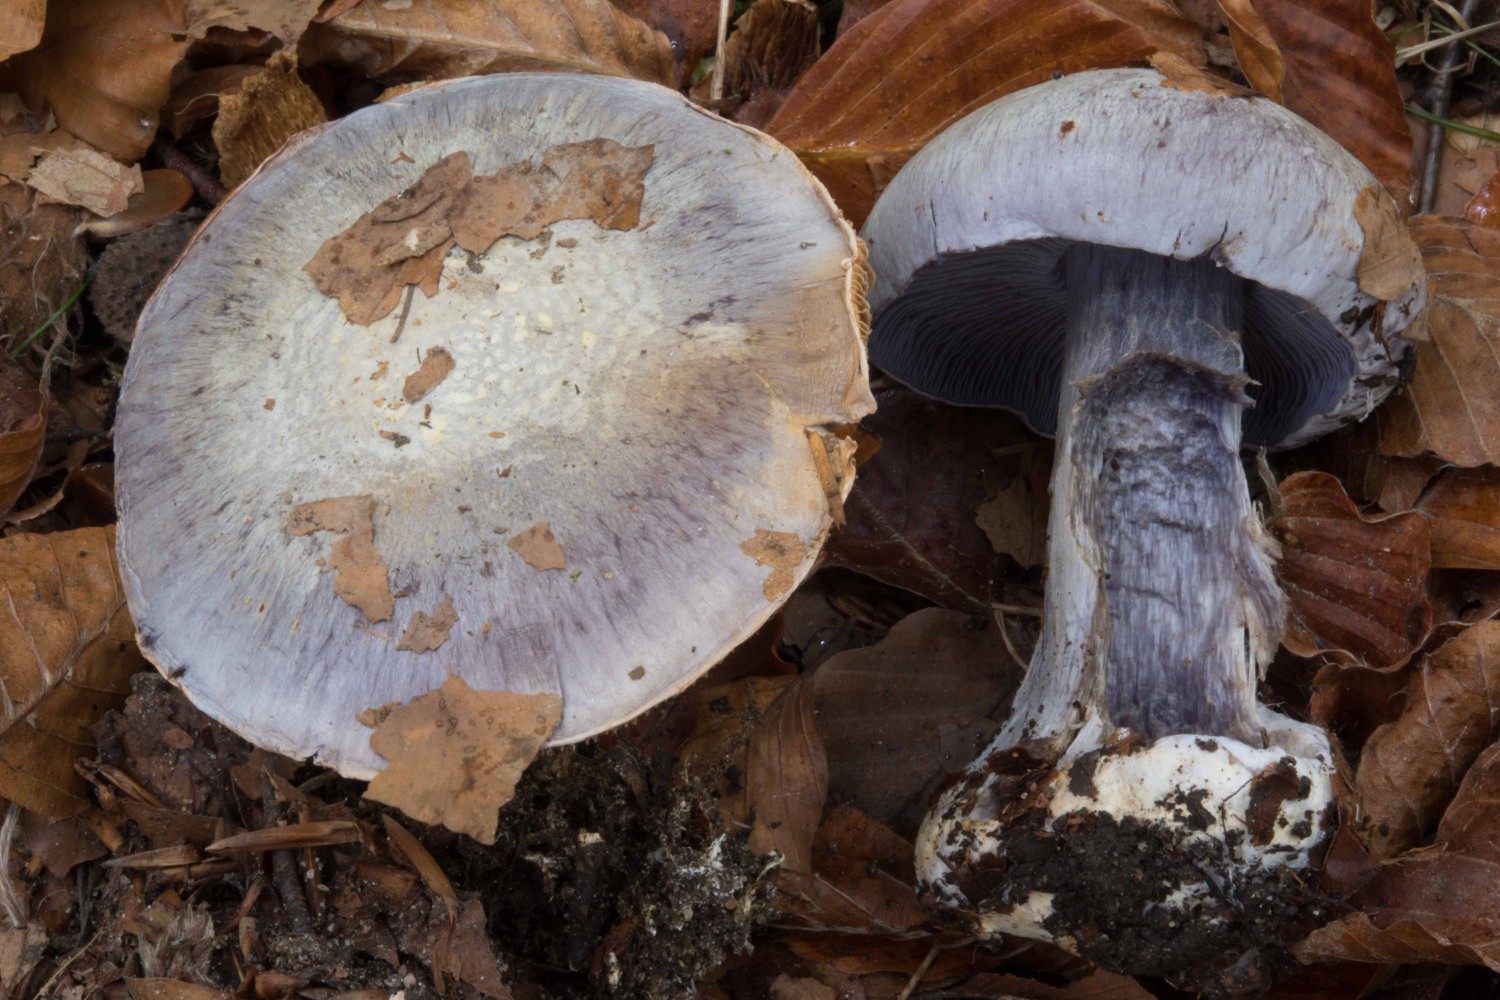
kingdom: Fungi
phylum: Basidiomycota
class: Agaricomycetes
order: Agaricales
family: Cortinariaceae
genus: Cortinarius
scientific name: Cortinarius caerulescens
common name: blåkødet slørhat
